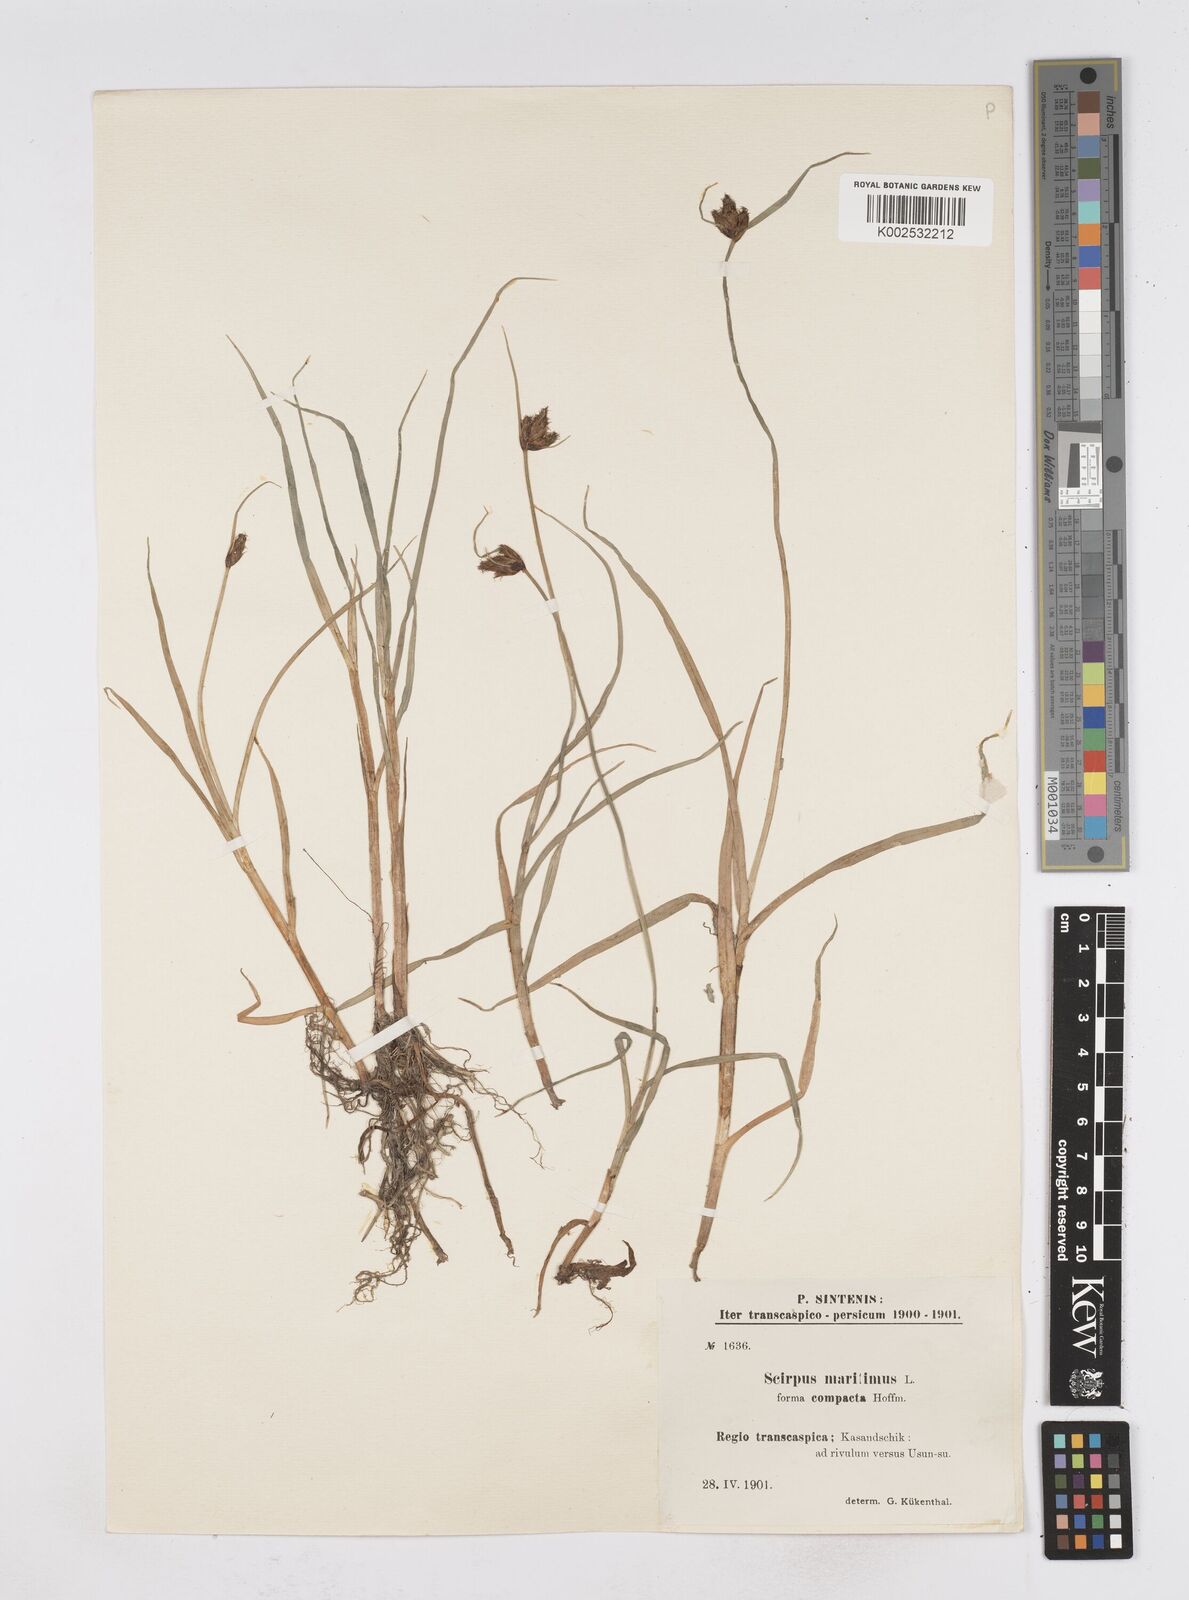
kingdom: Plantae
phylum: Tracheophyta
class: Liliopsida
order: Poales
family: Cyperaceae
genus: Bolboschoenus
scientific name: Bolboschoenus maritimus
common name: Sea club-rush
